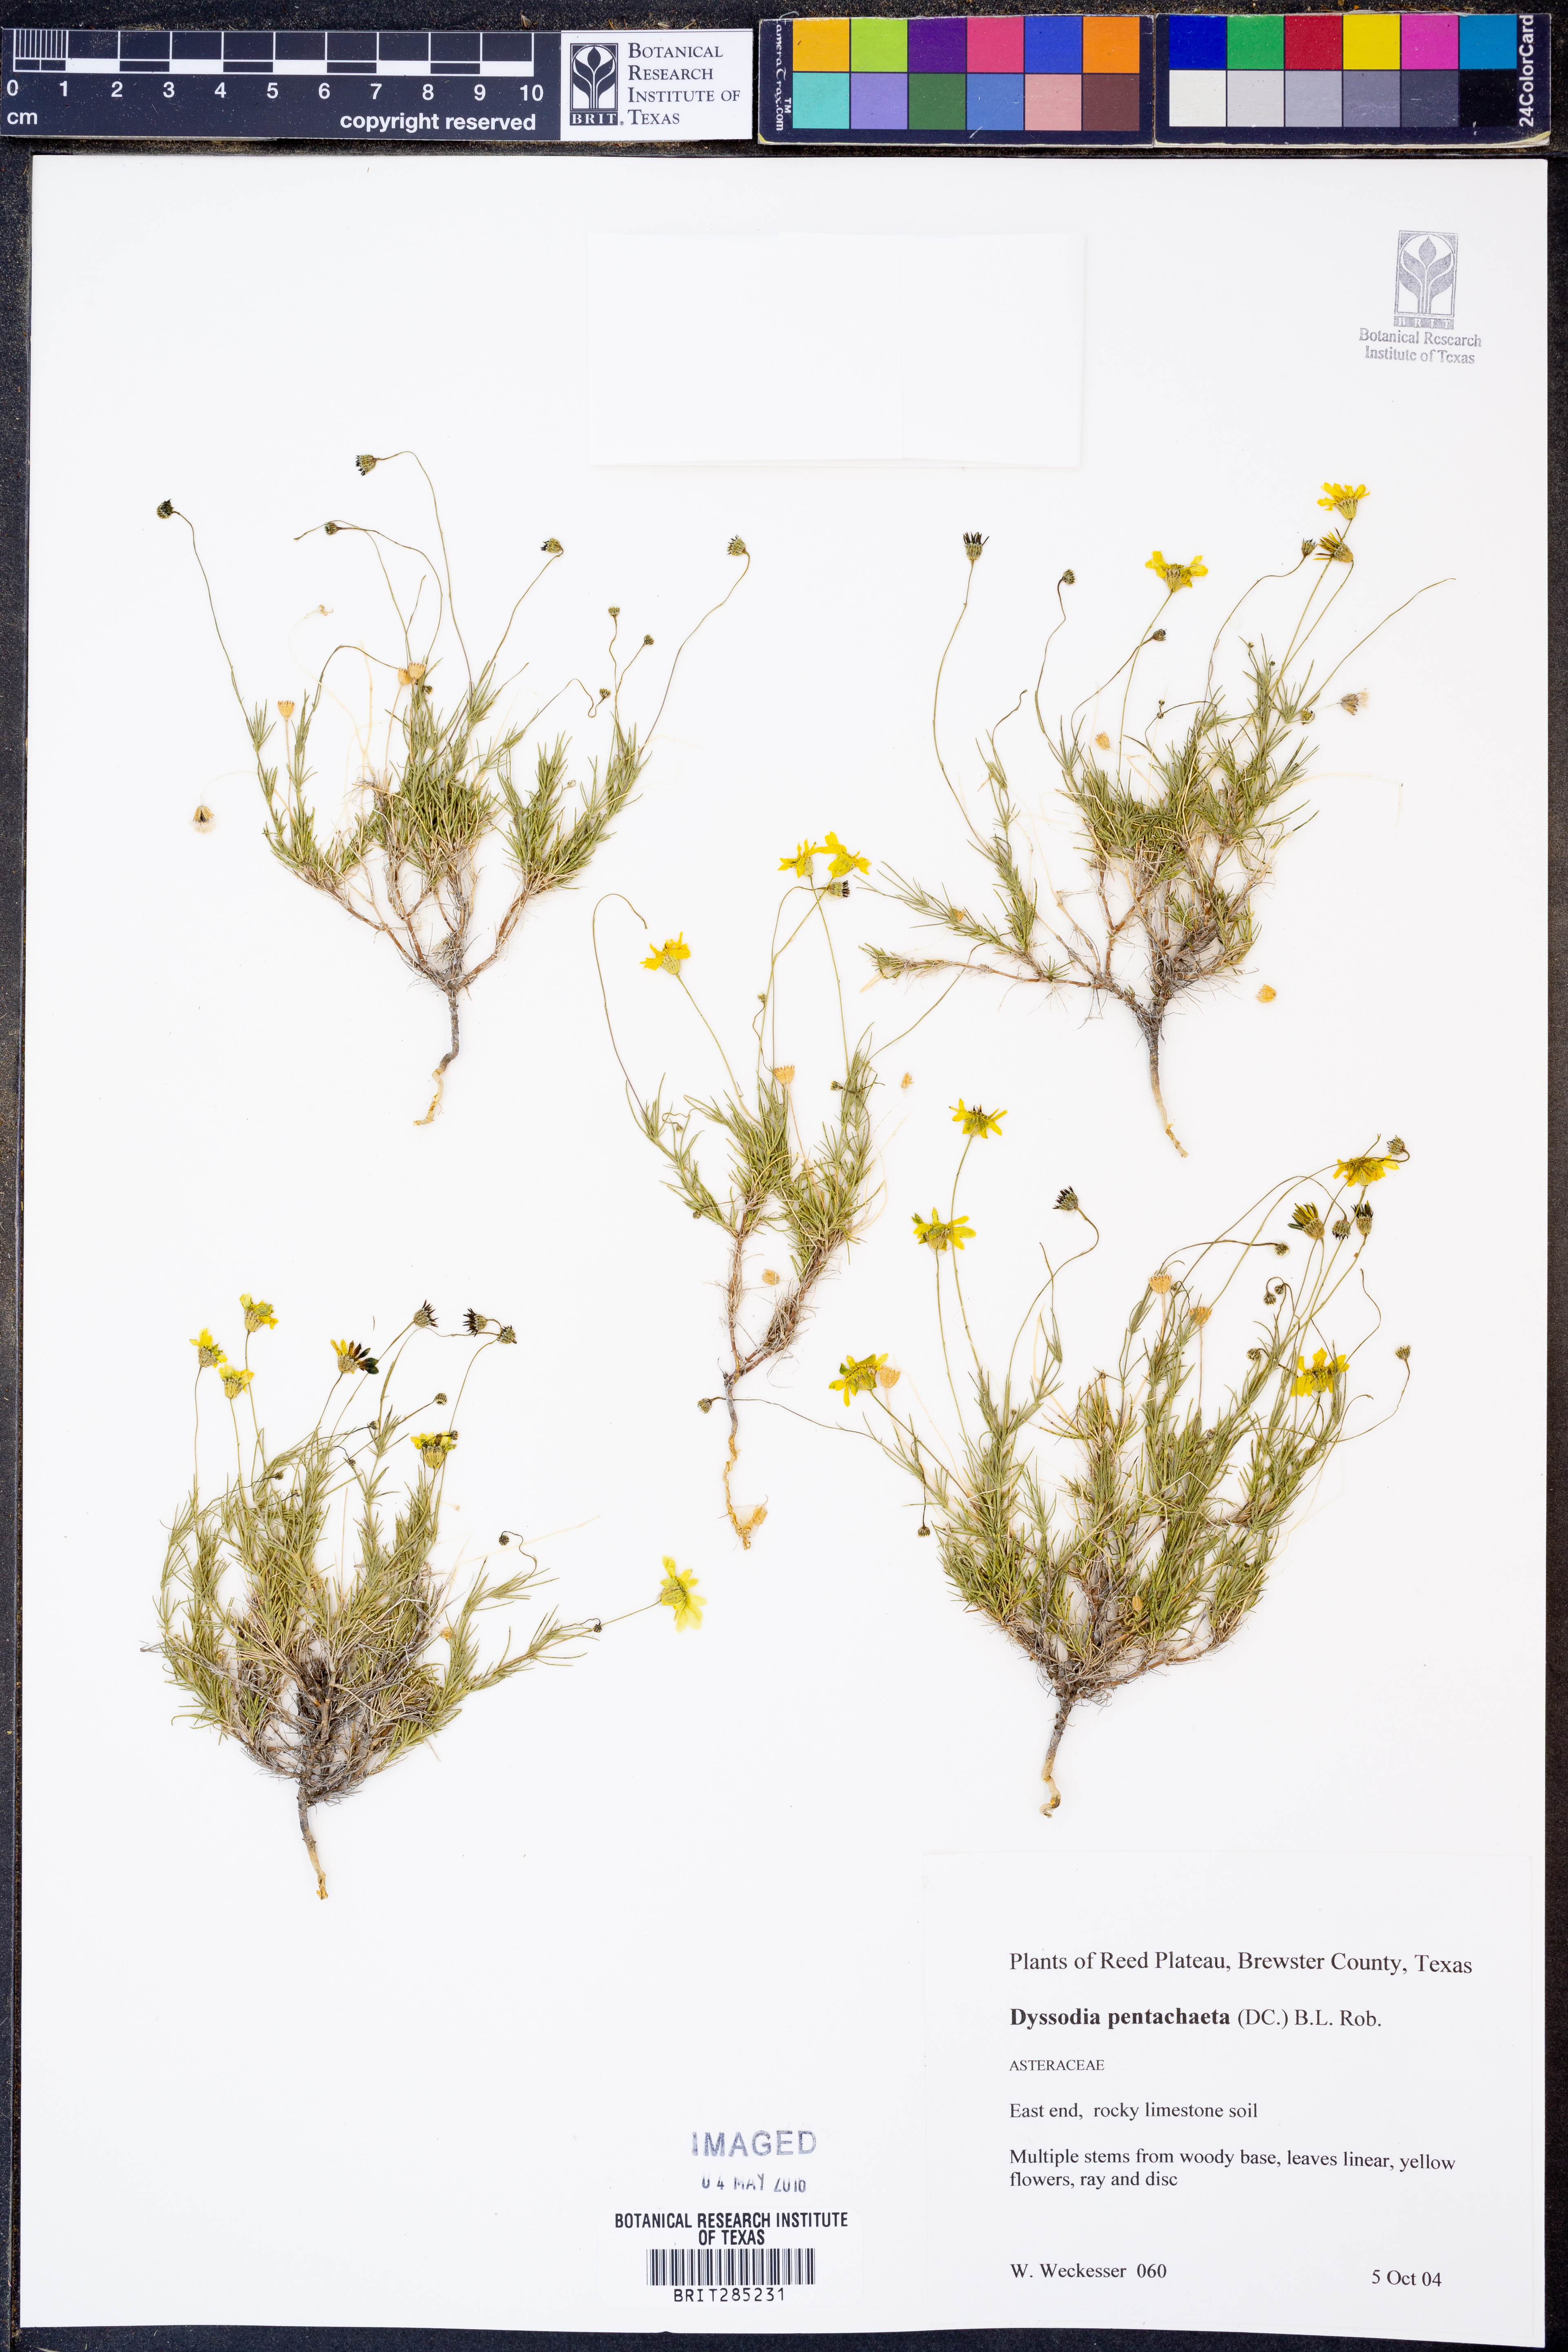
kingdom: Plantae
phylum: Tracheophyta
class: Magnoliopsida
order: Asterales
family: Asteraceae
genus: Thymophylla
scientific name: Thymophylla pentachaeta
